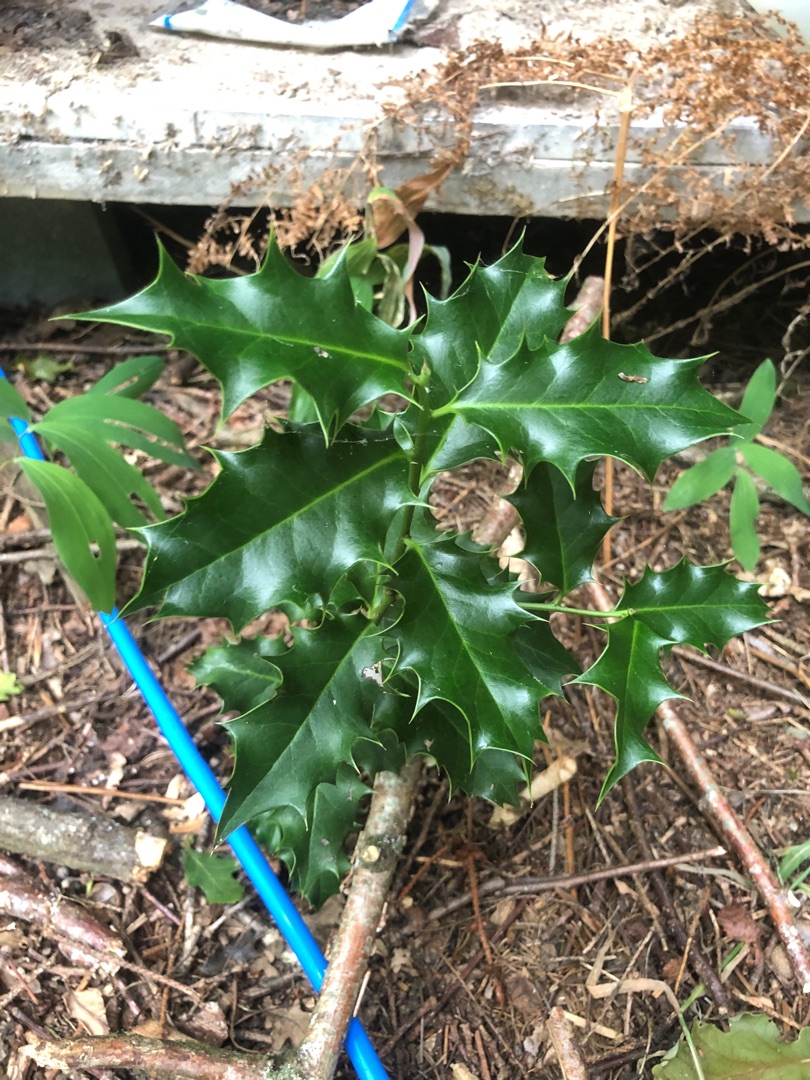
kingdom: Plantae
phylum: Tracheophyta
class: Magnoliopsida
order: Aquifoliales
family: Aquifoliaceae
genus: Ilex
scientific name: Ilex aquifolium
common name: Kristtorn
